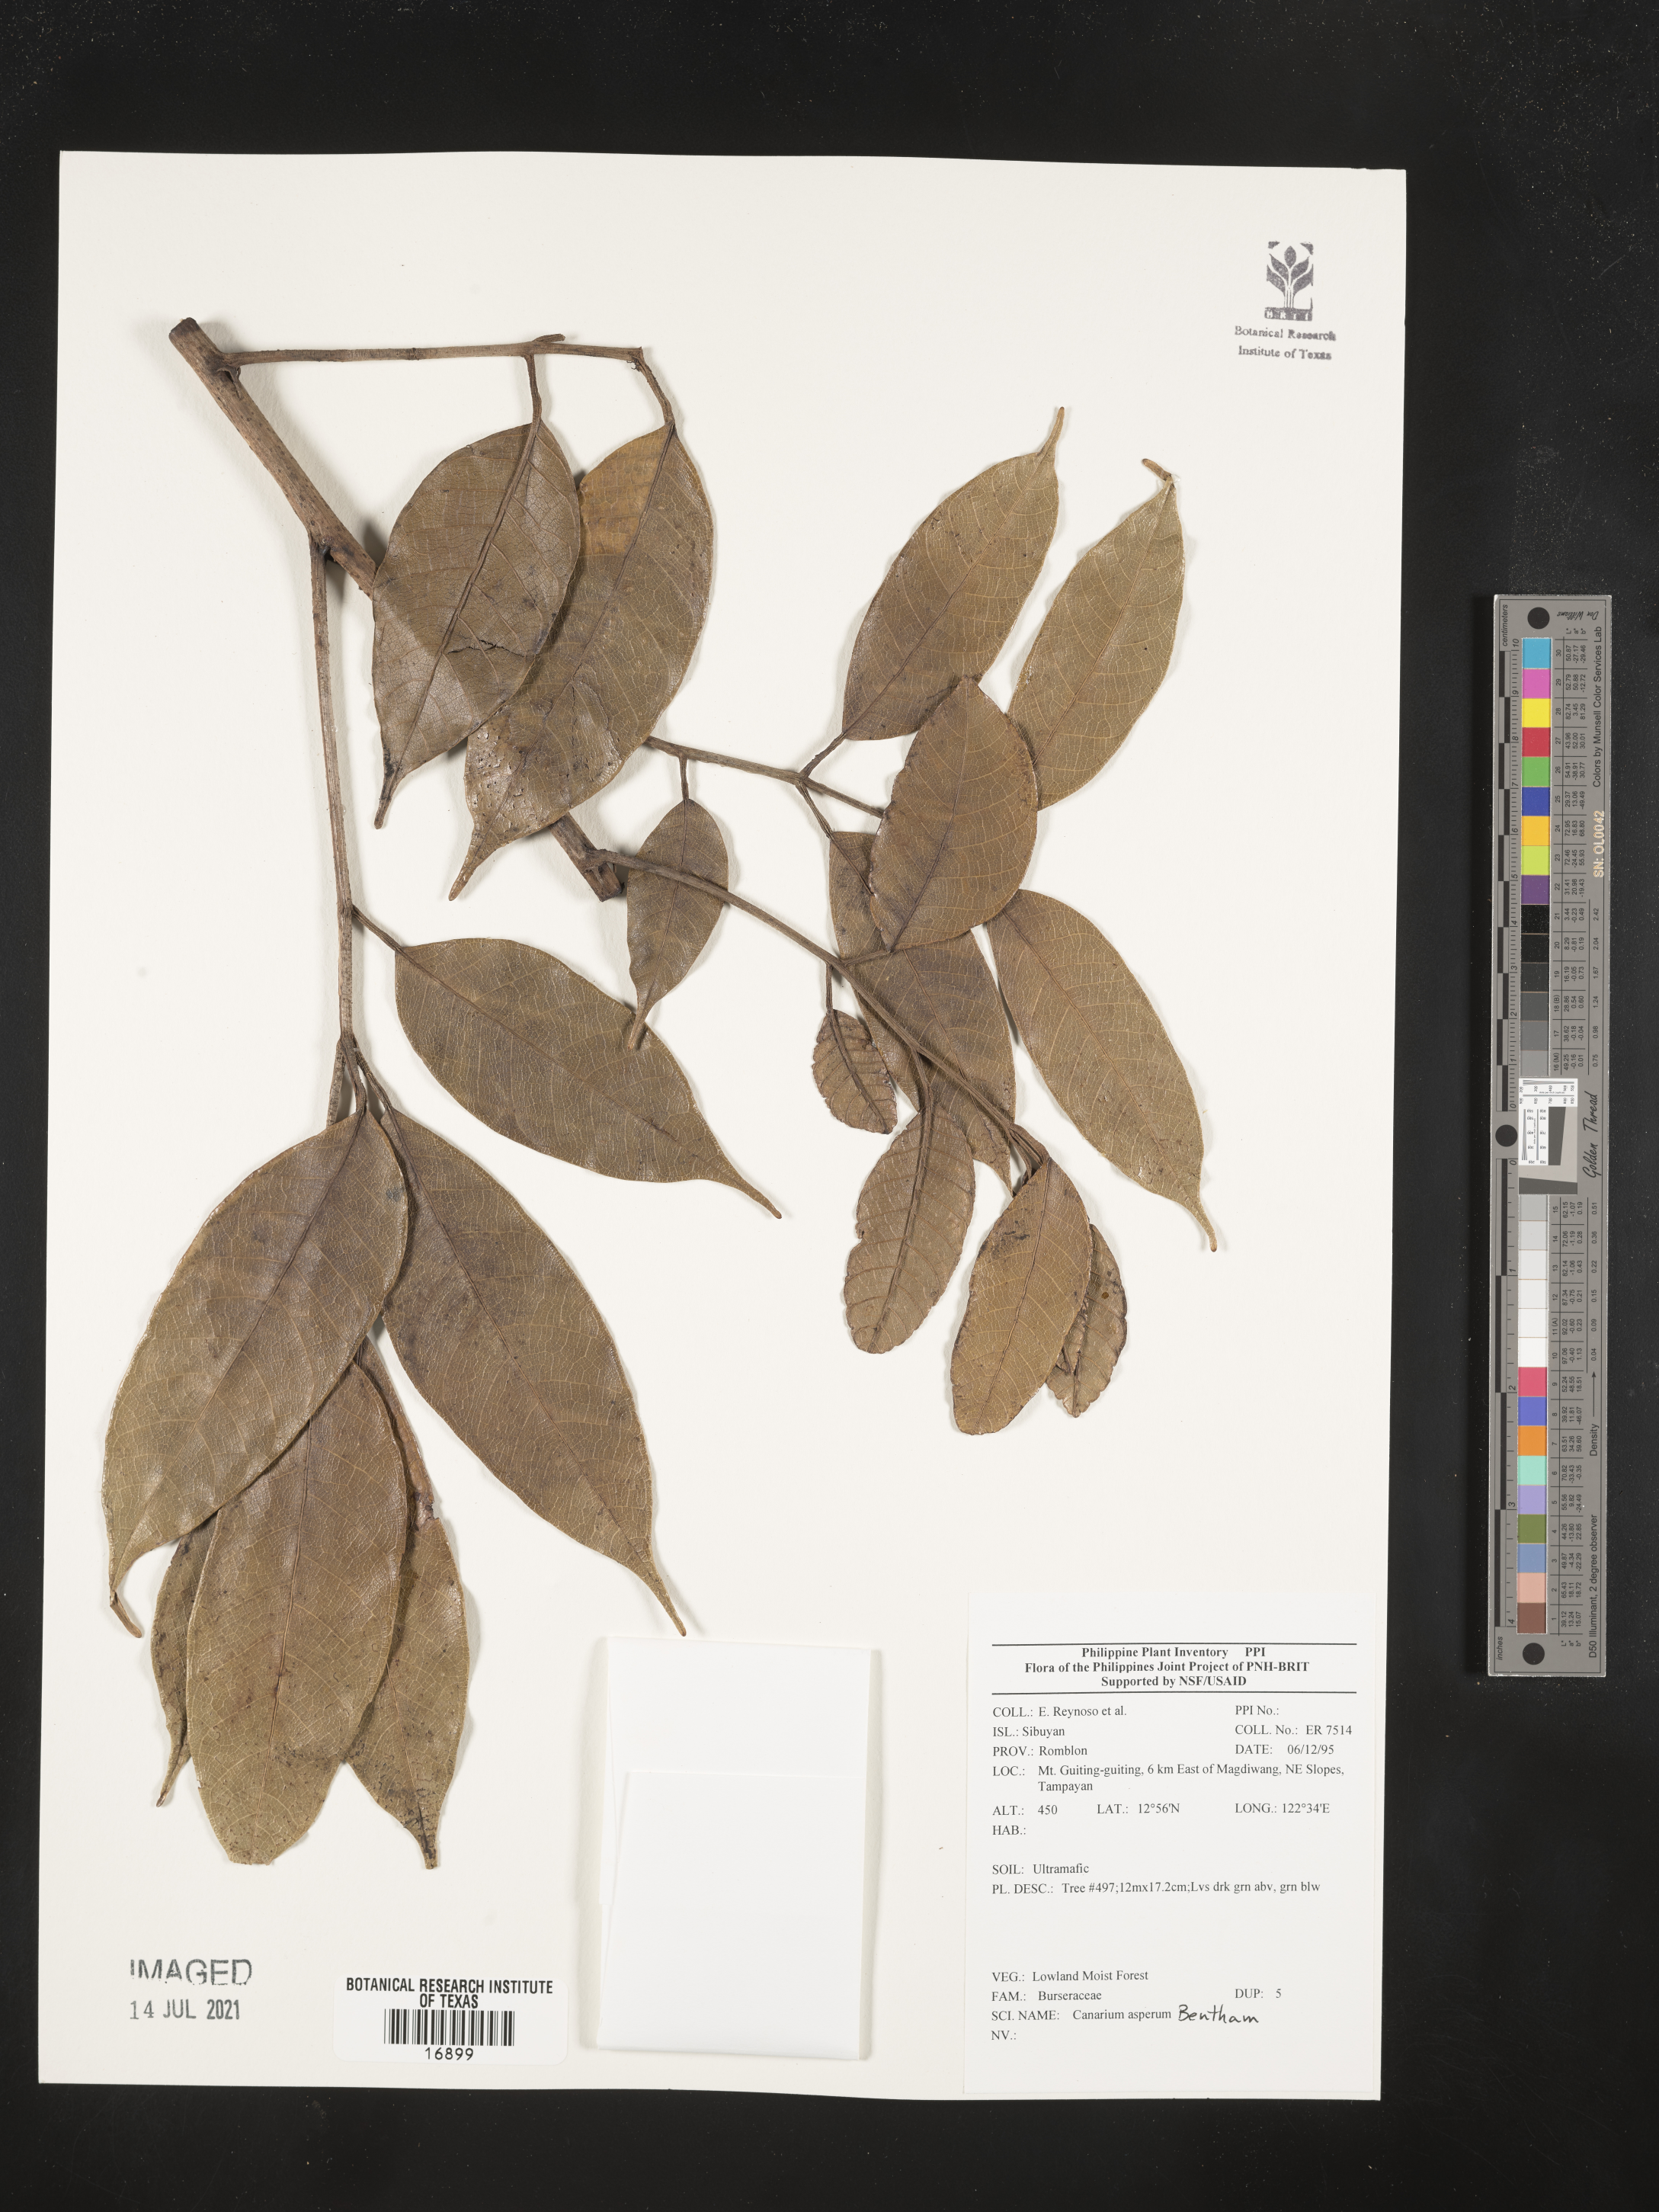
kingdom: Plantae
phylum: Tracheophyta
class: Magnoliopsida
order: Sapindales
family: Burseraceae
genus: Canarium
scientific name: Canarium asperum
